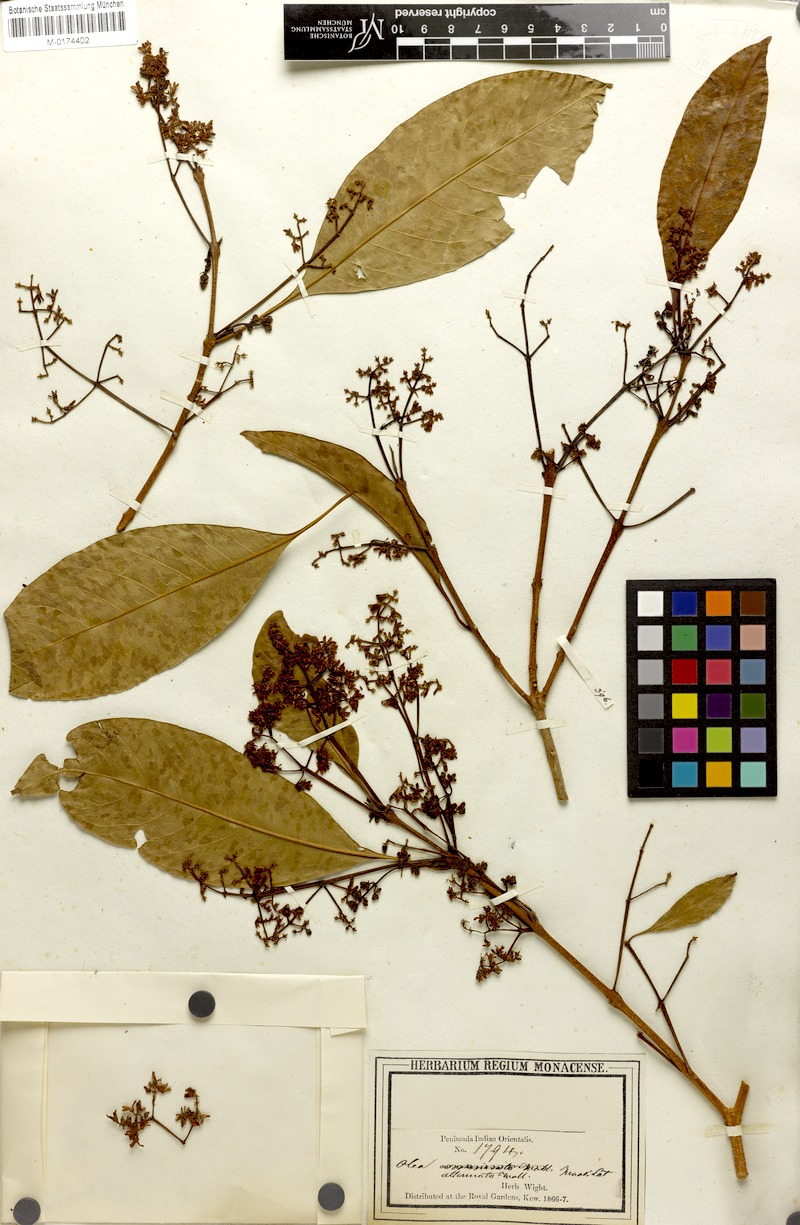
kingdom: Plantae
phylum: Tracheophyta
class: Magnoliopsida
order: Lamiales
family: Oleaceae
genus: Chionanthus
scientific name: Chionanthus ramiflorus
